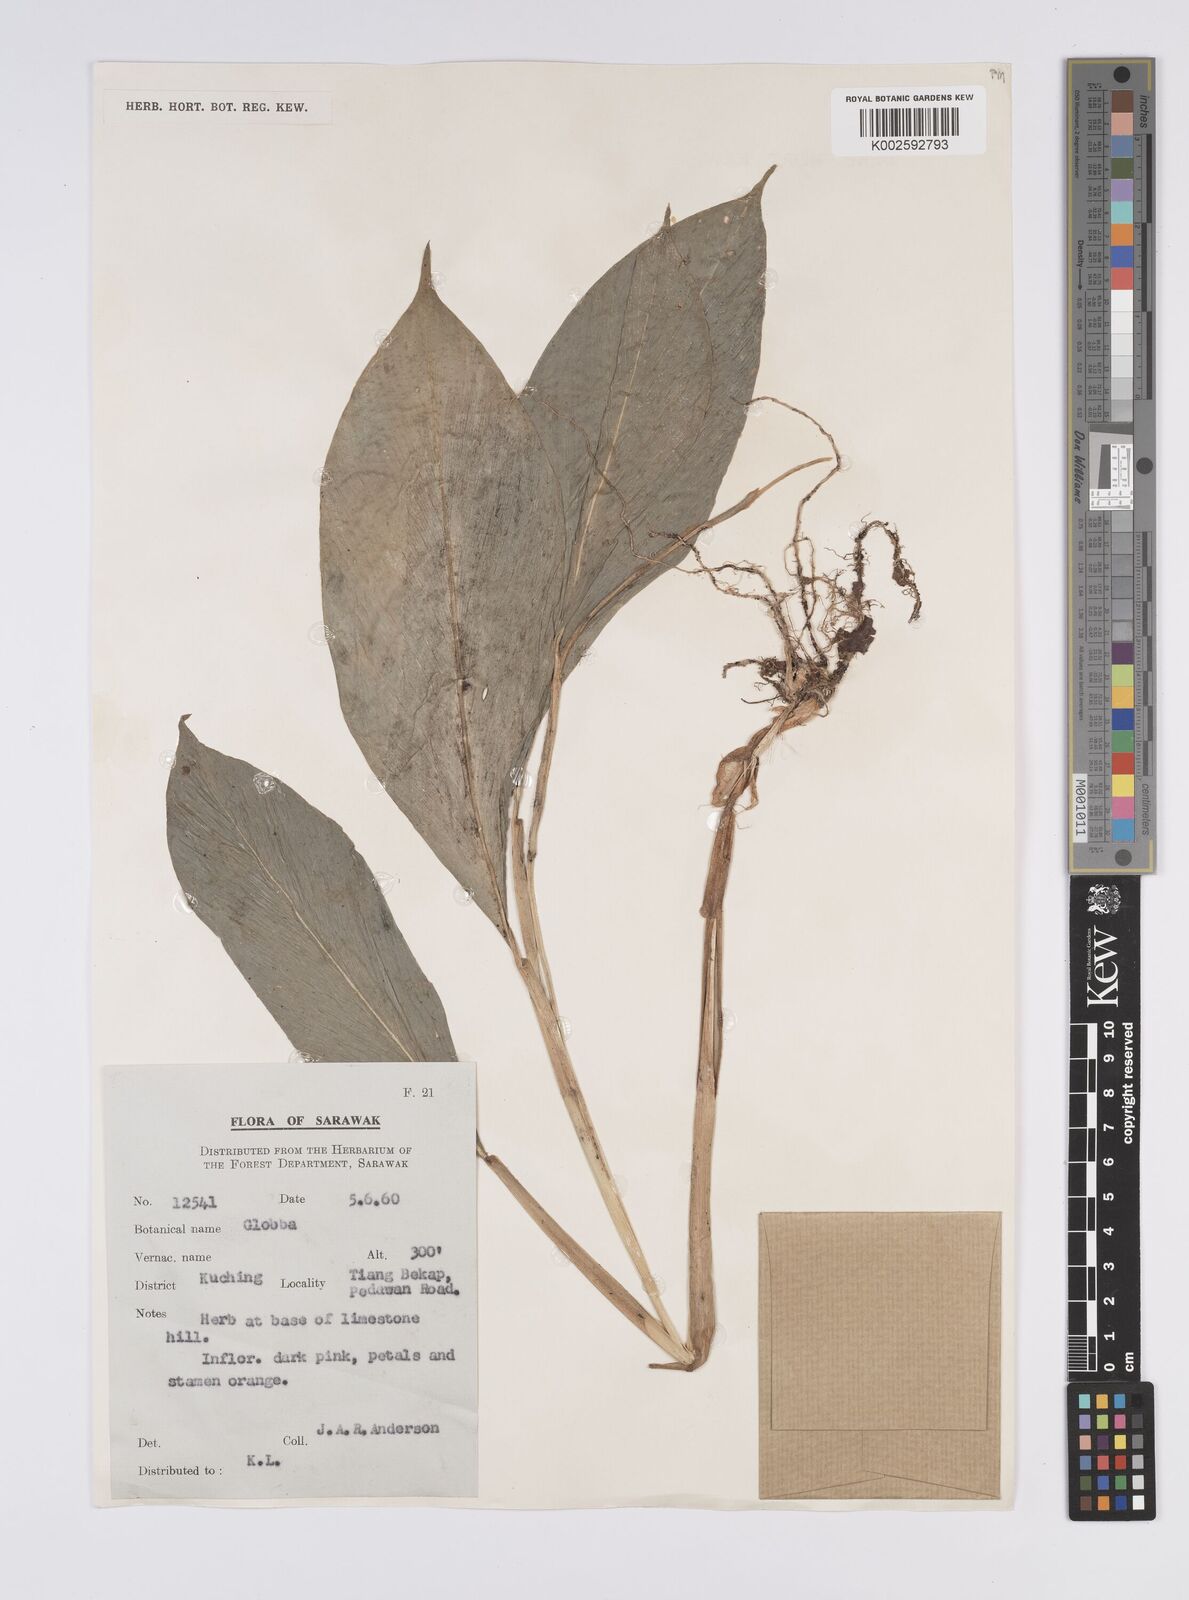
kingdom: Plantae
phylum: Tracheophyta
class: Liliopsida
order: Zingiberales
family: Zingiberaceae
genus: Globba
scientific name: Globba atrosanguinea
